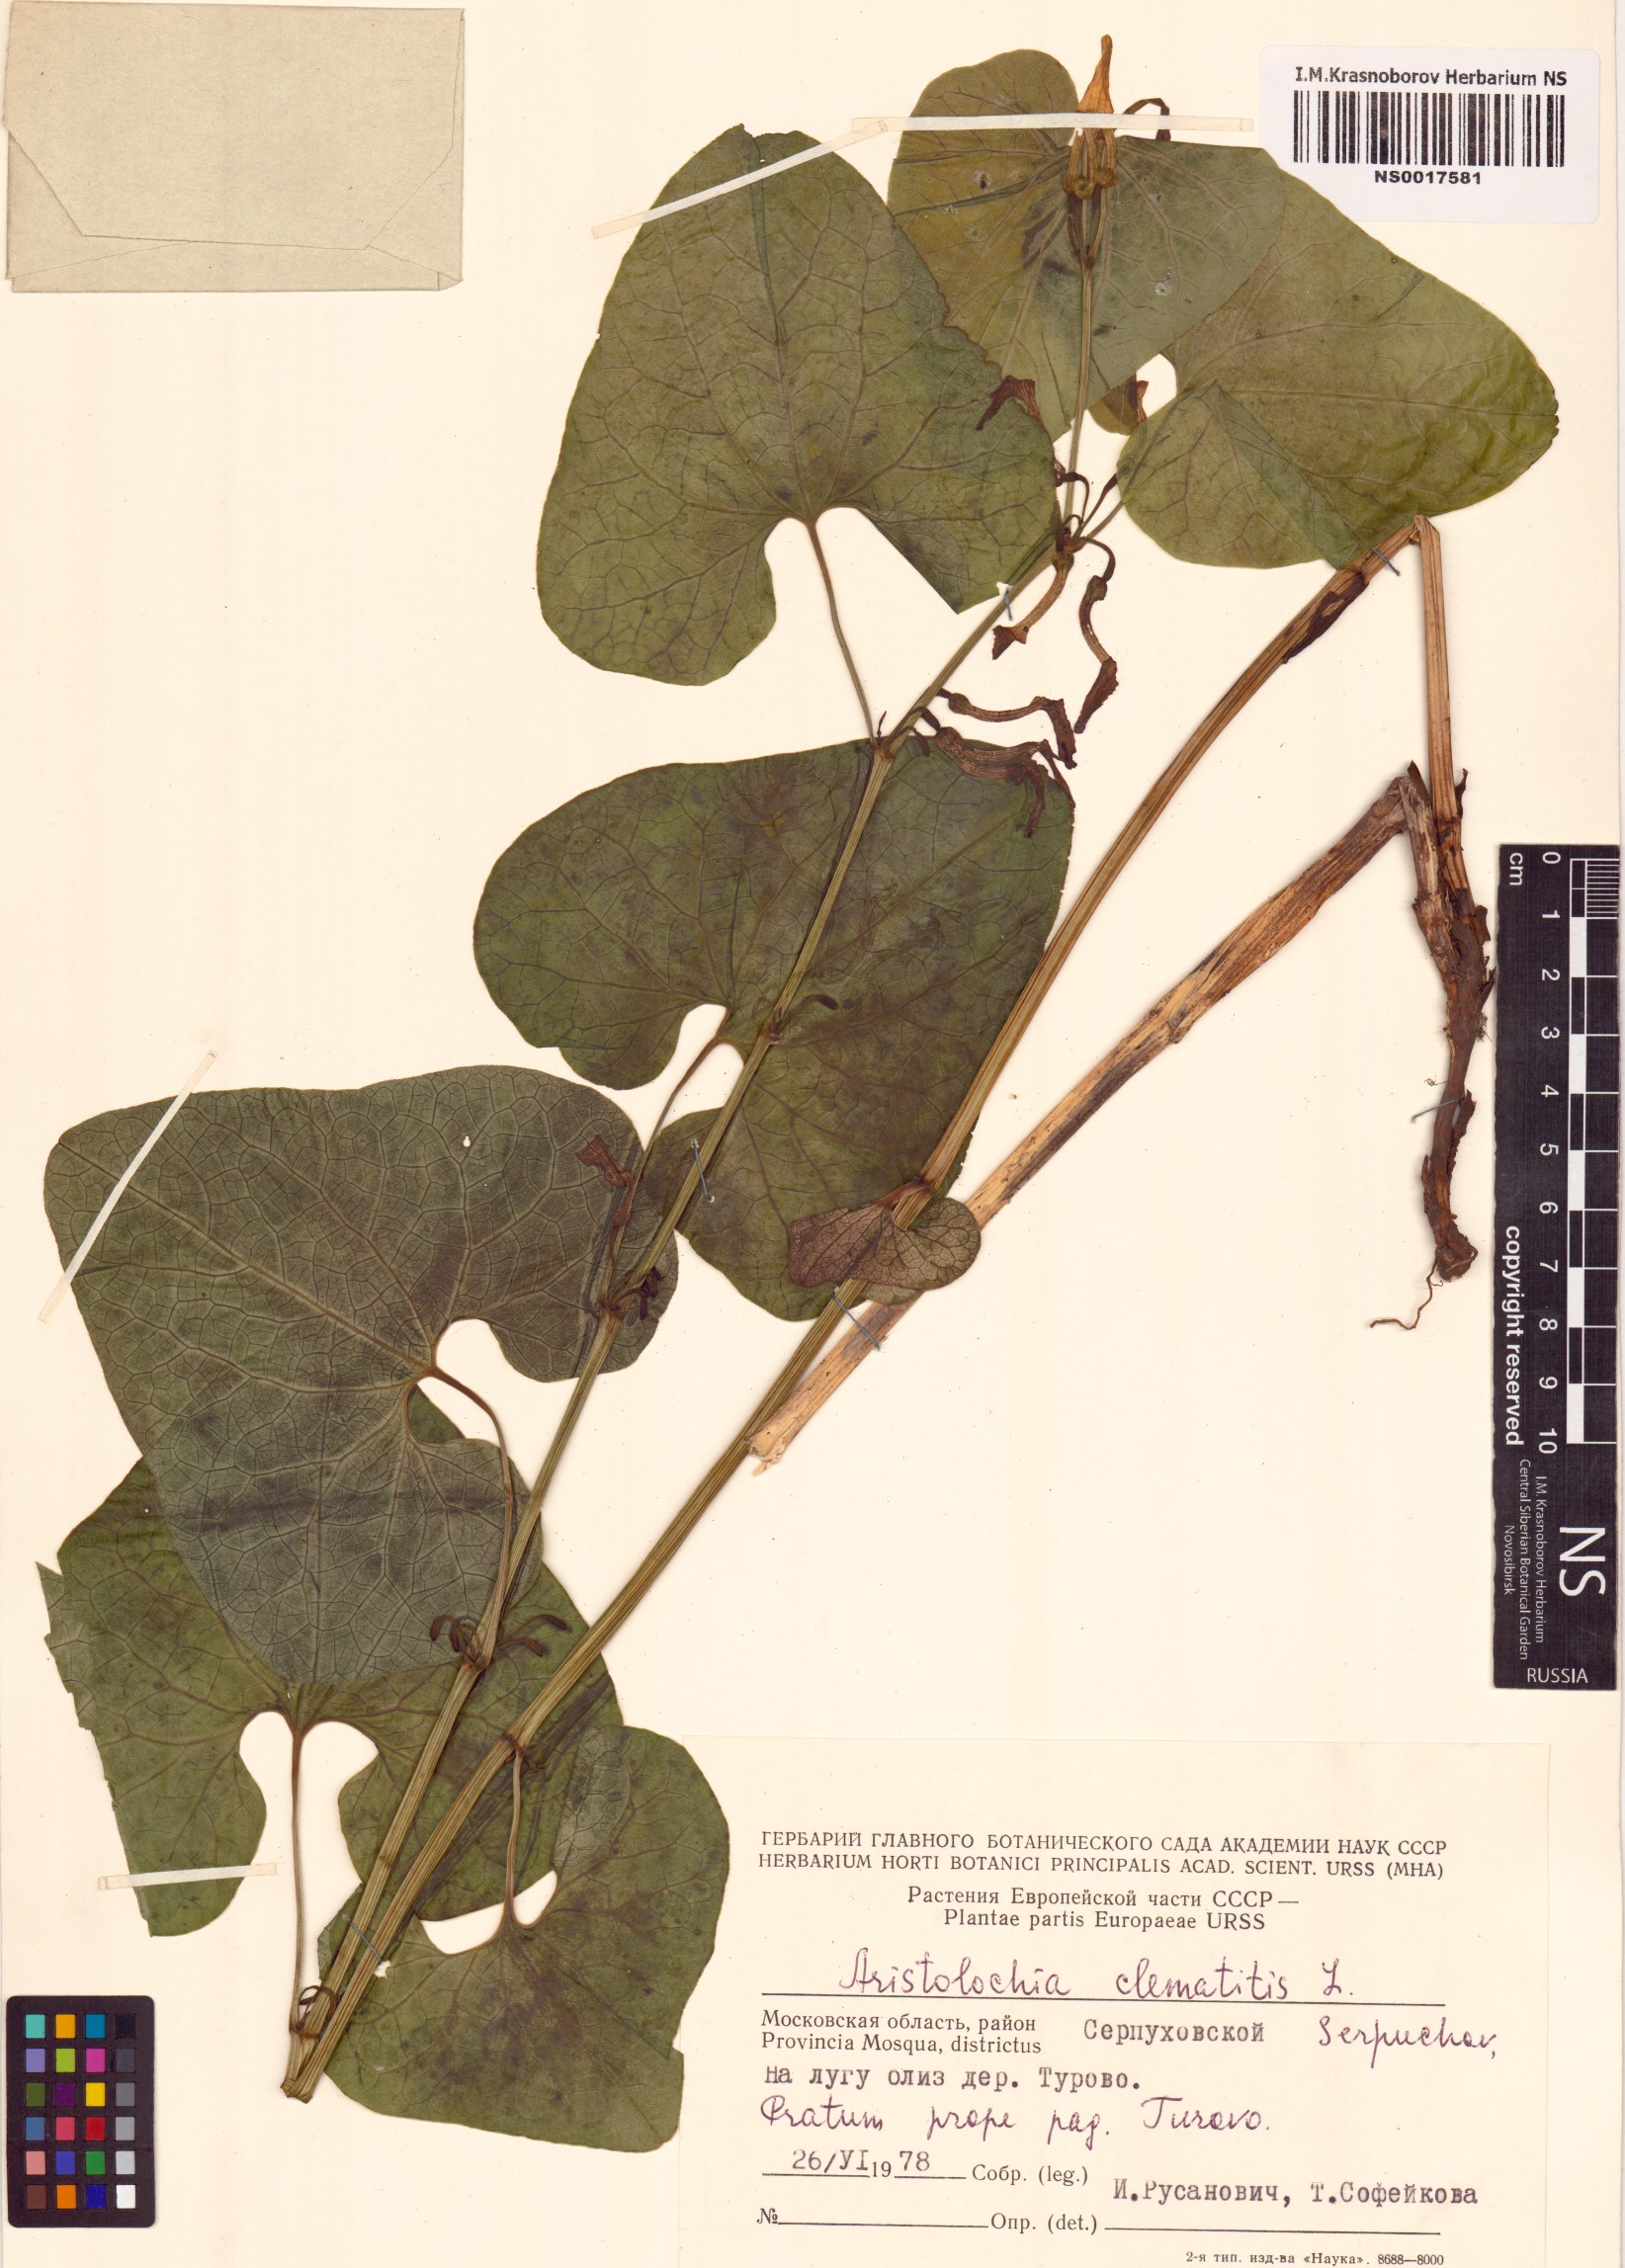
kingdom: Plantae
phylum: Tracheophyta
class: Magnoliopsida
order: Piperales
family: Aristolochiaceae
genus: Aristolochia
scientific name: Aristolochia clematitis
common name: Birthwort
